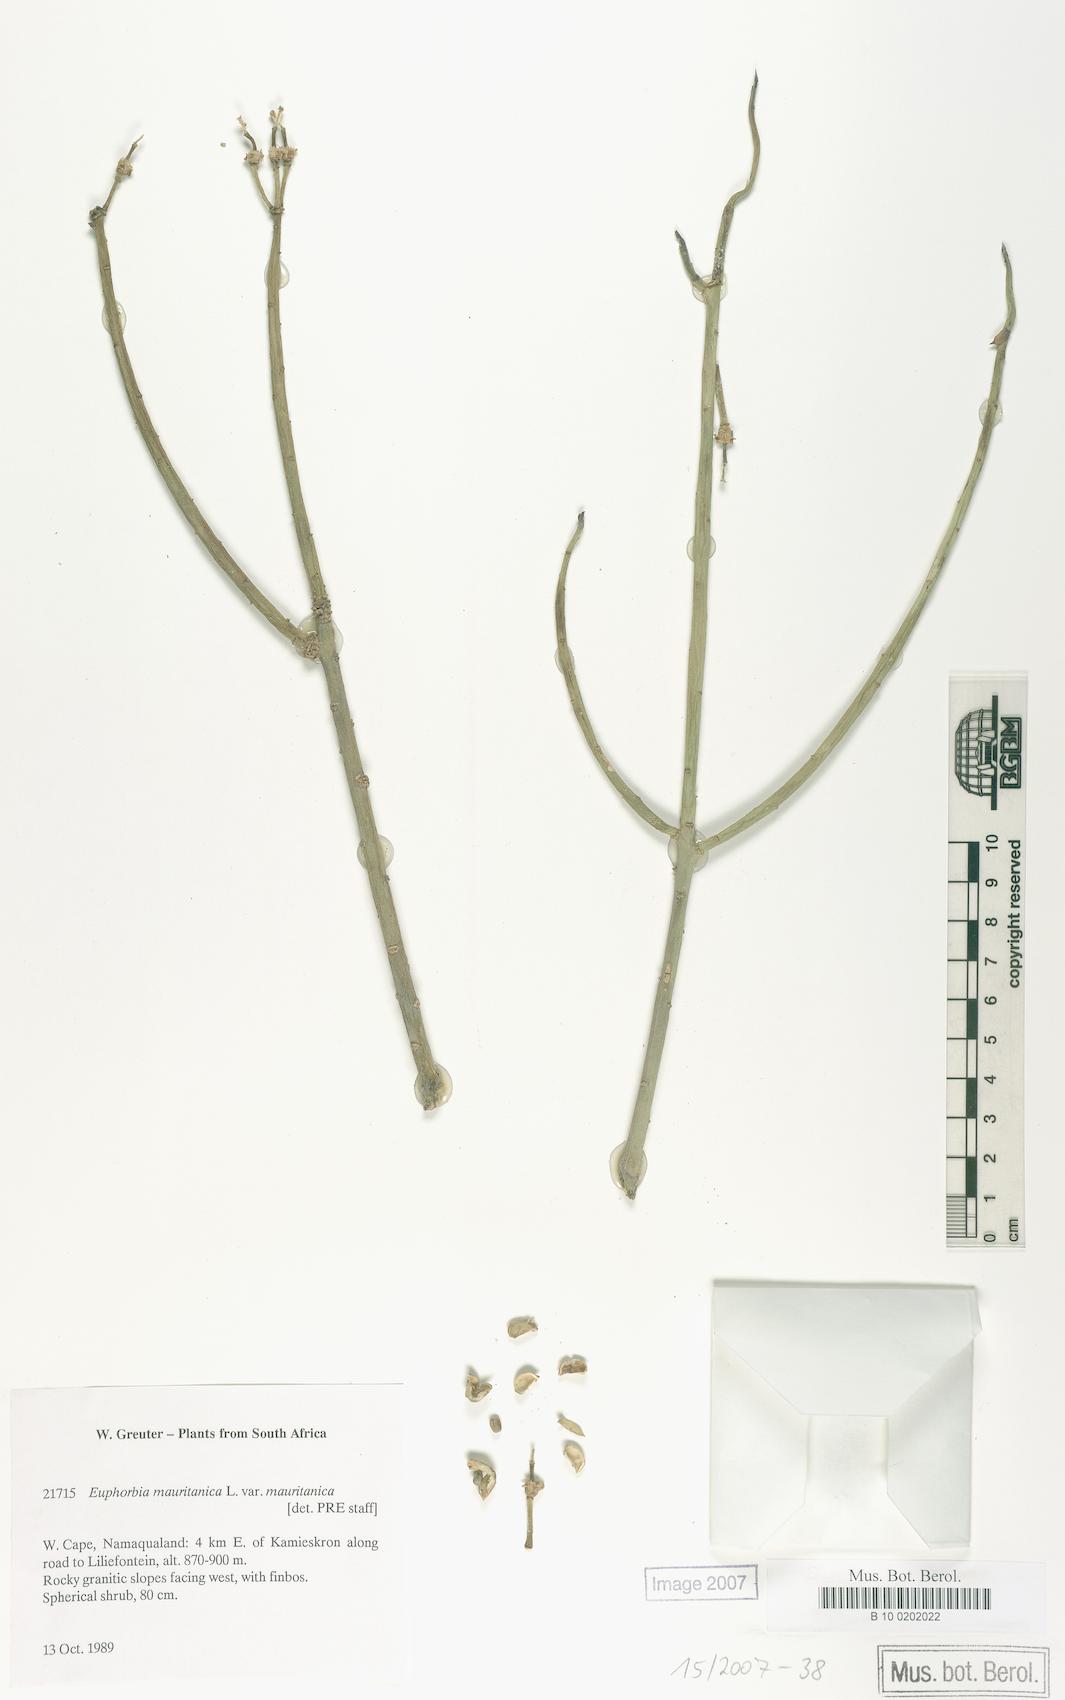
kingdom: Plantae
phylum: Tracheophyta
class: Magnoliopsida
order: Malpighiales
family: Euphorbiaceae
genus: Euphorbia
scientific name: Euphorbia mauritanica
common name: Jackal's-food
